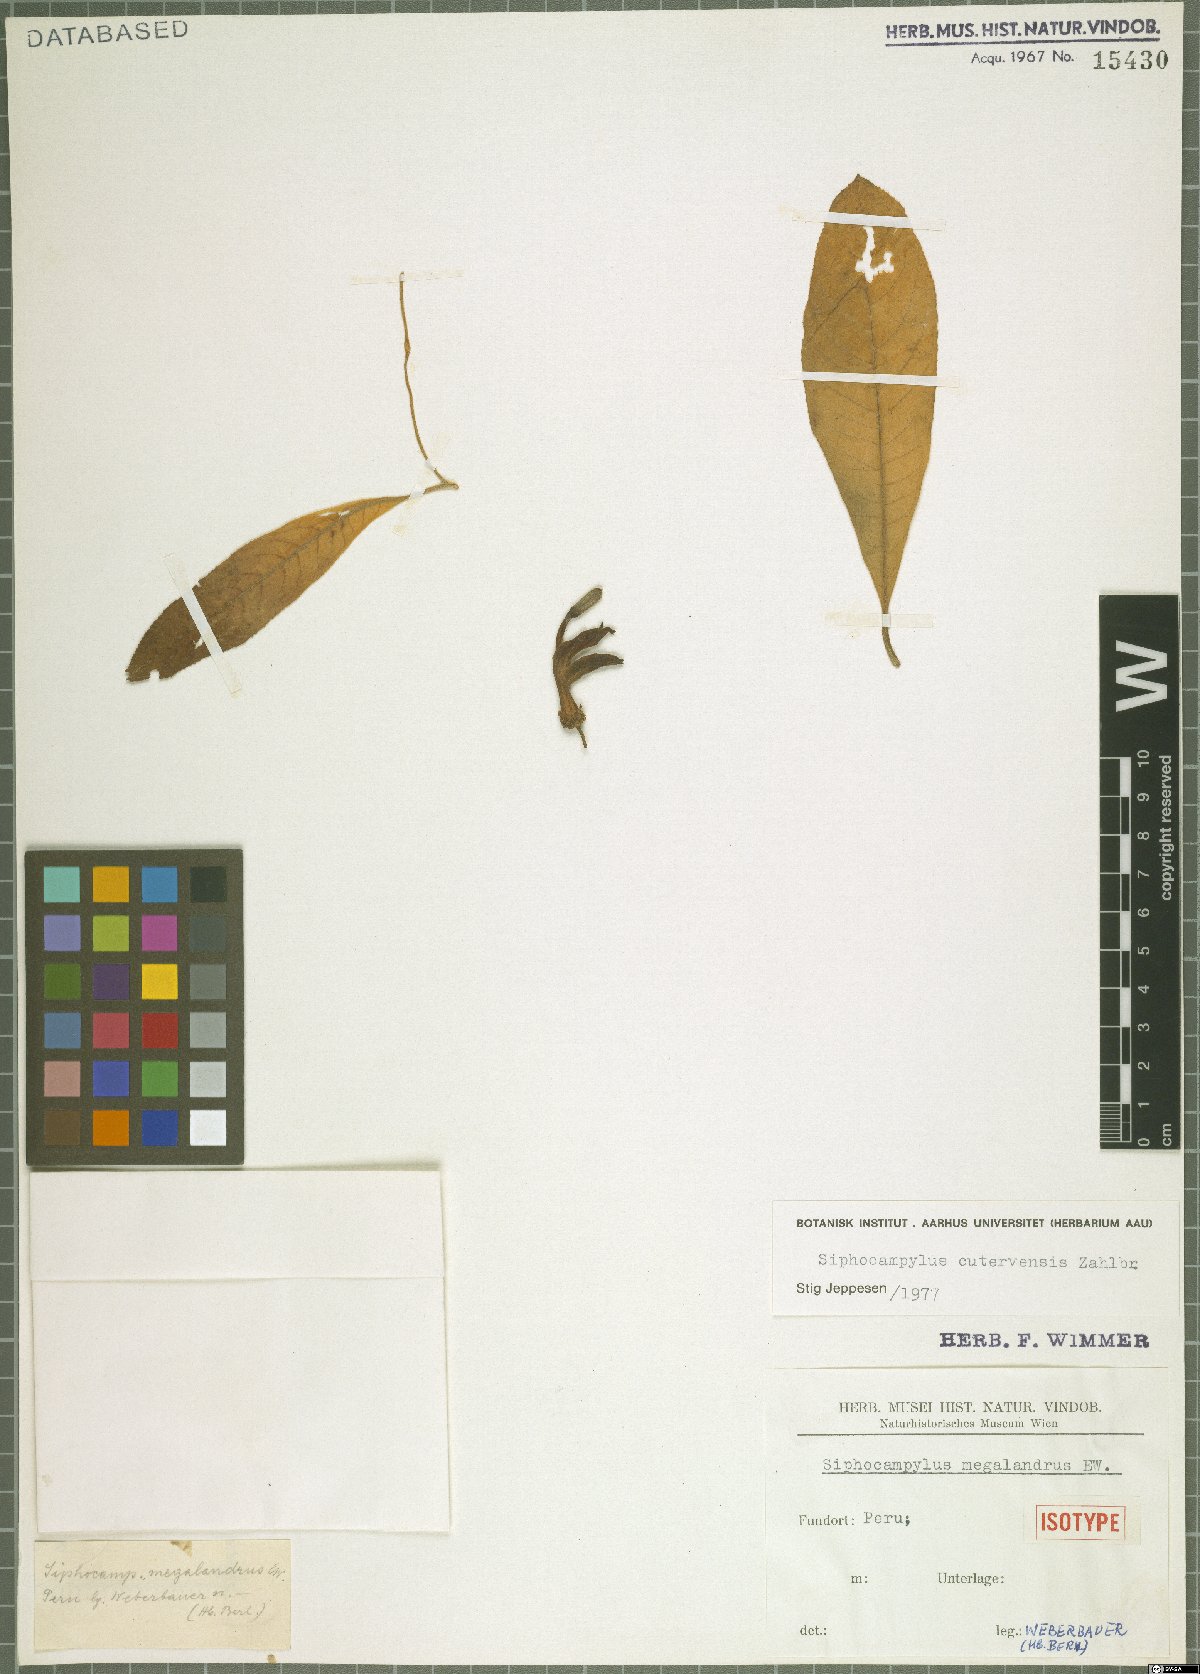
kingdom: Plantae
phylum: Tracheophyta
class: Magnoliopsida
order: Asterales
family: Campanulaceae
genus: Siphocampylus
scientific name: Siphocampylus cutervensis
